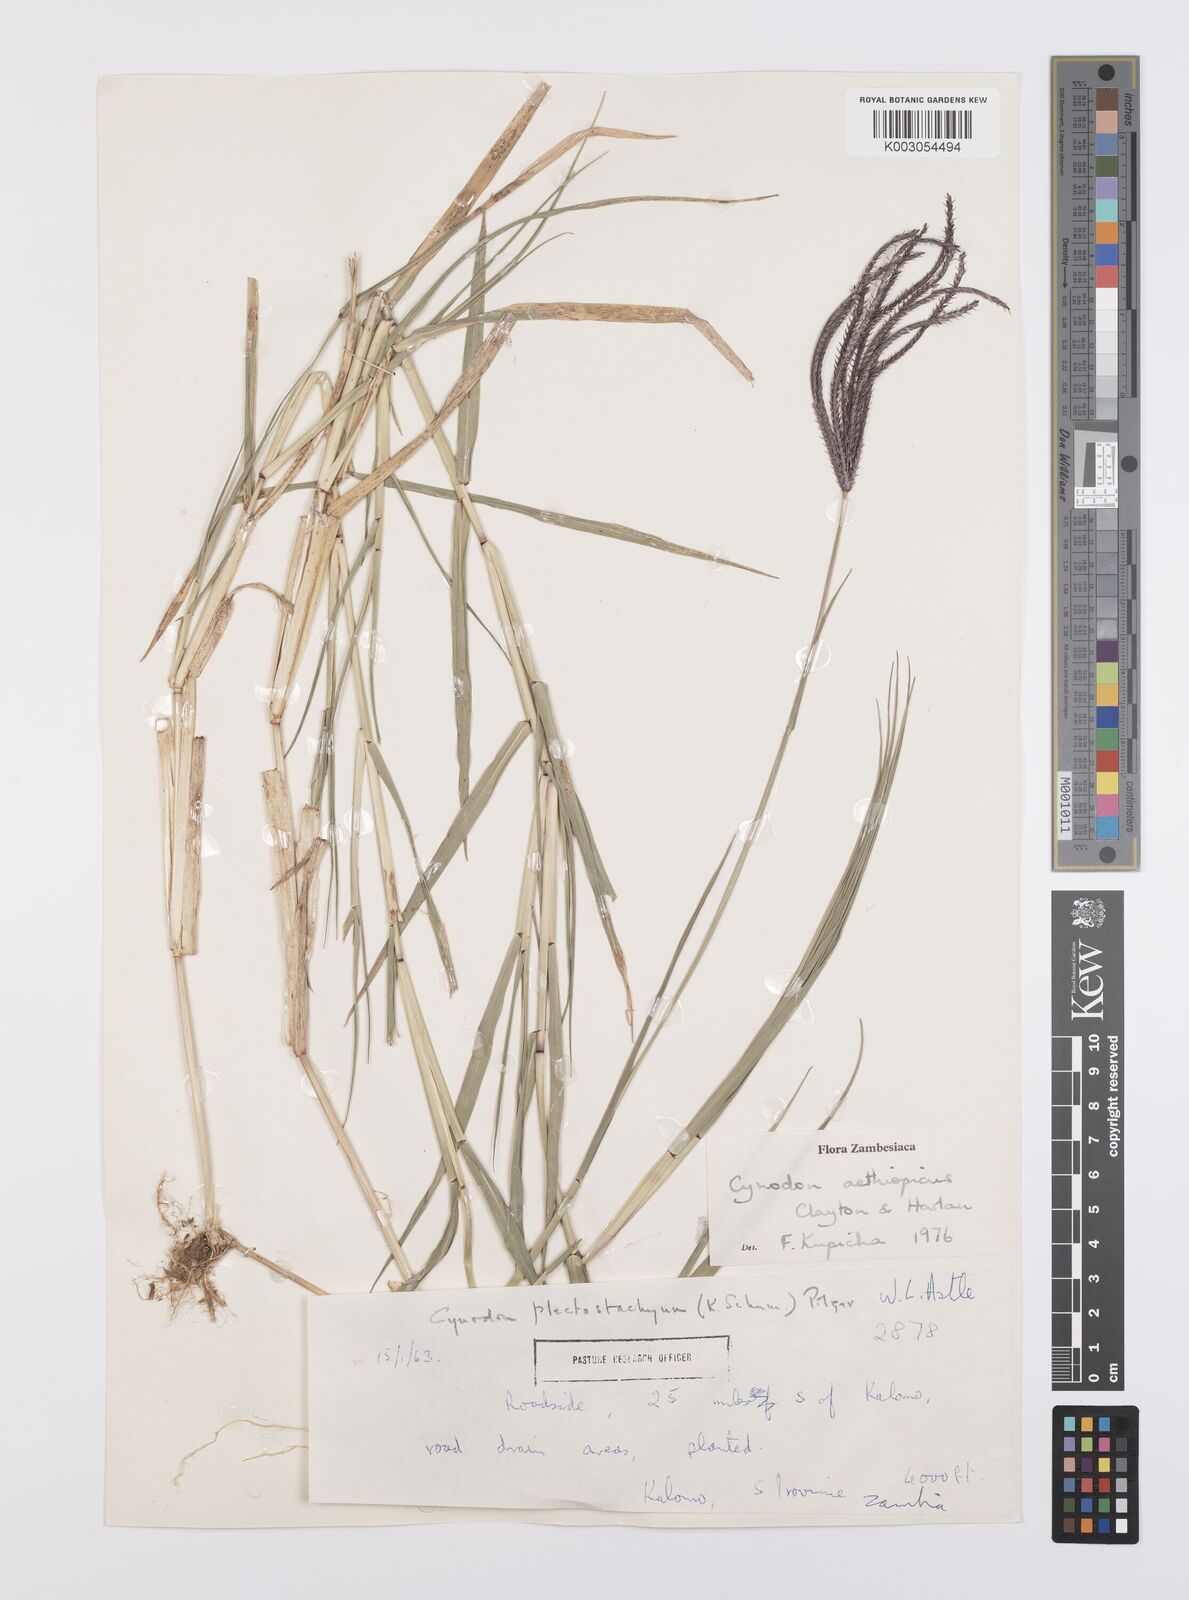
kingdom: Plantae
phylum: Tracheophyta
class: Liliopsida
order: Poales
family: Poaceae
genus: Cynodon
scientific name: Cynodon aethiopicus
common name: Ethiopian dogstooth grass
